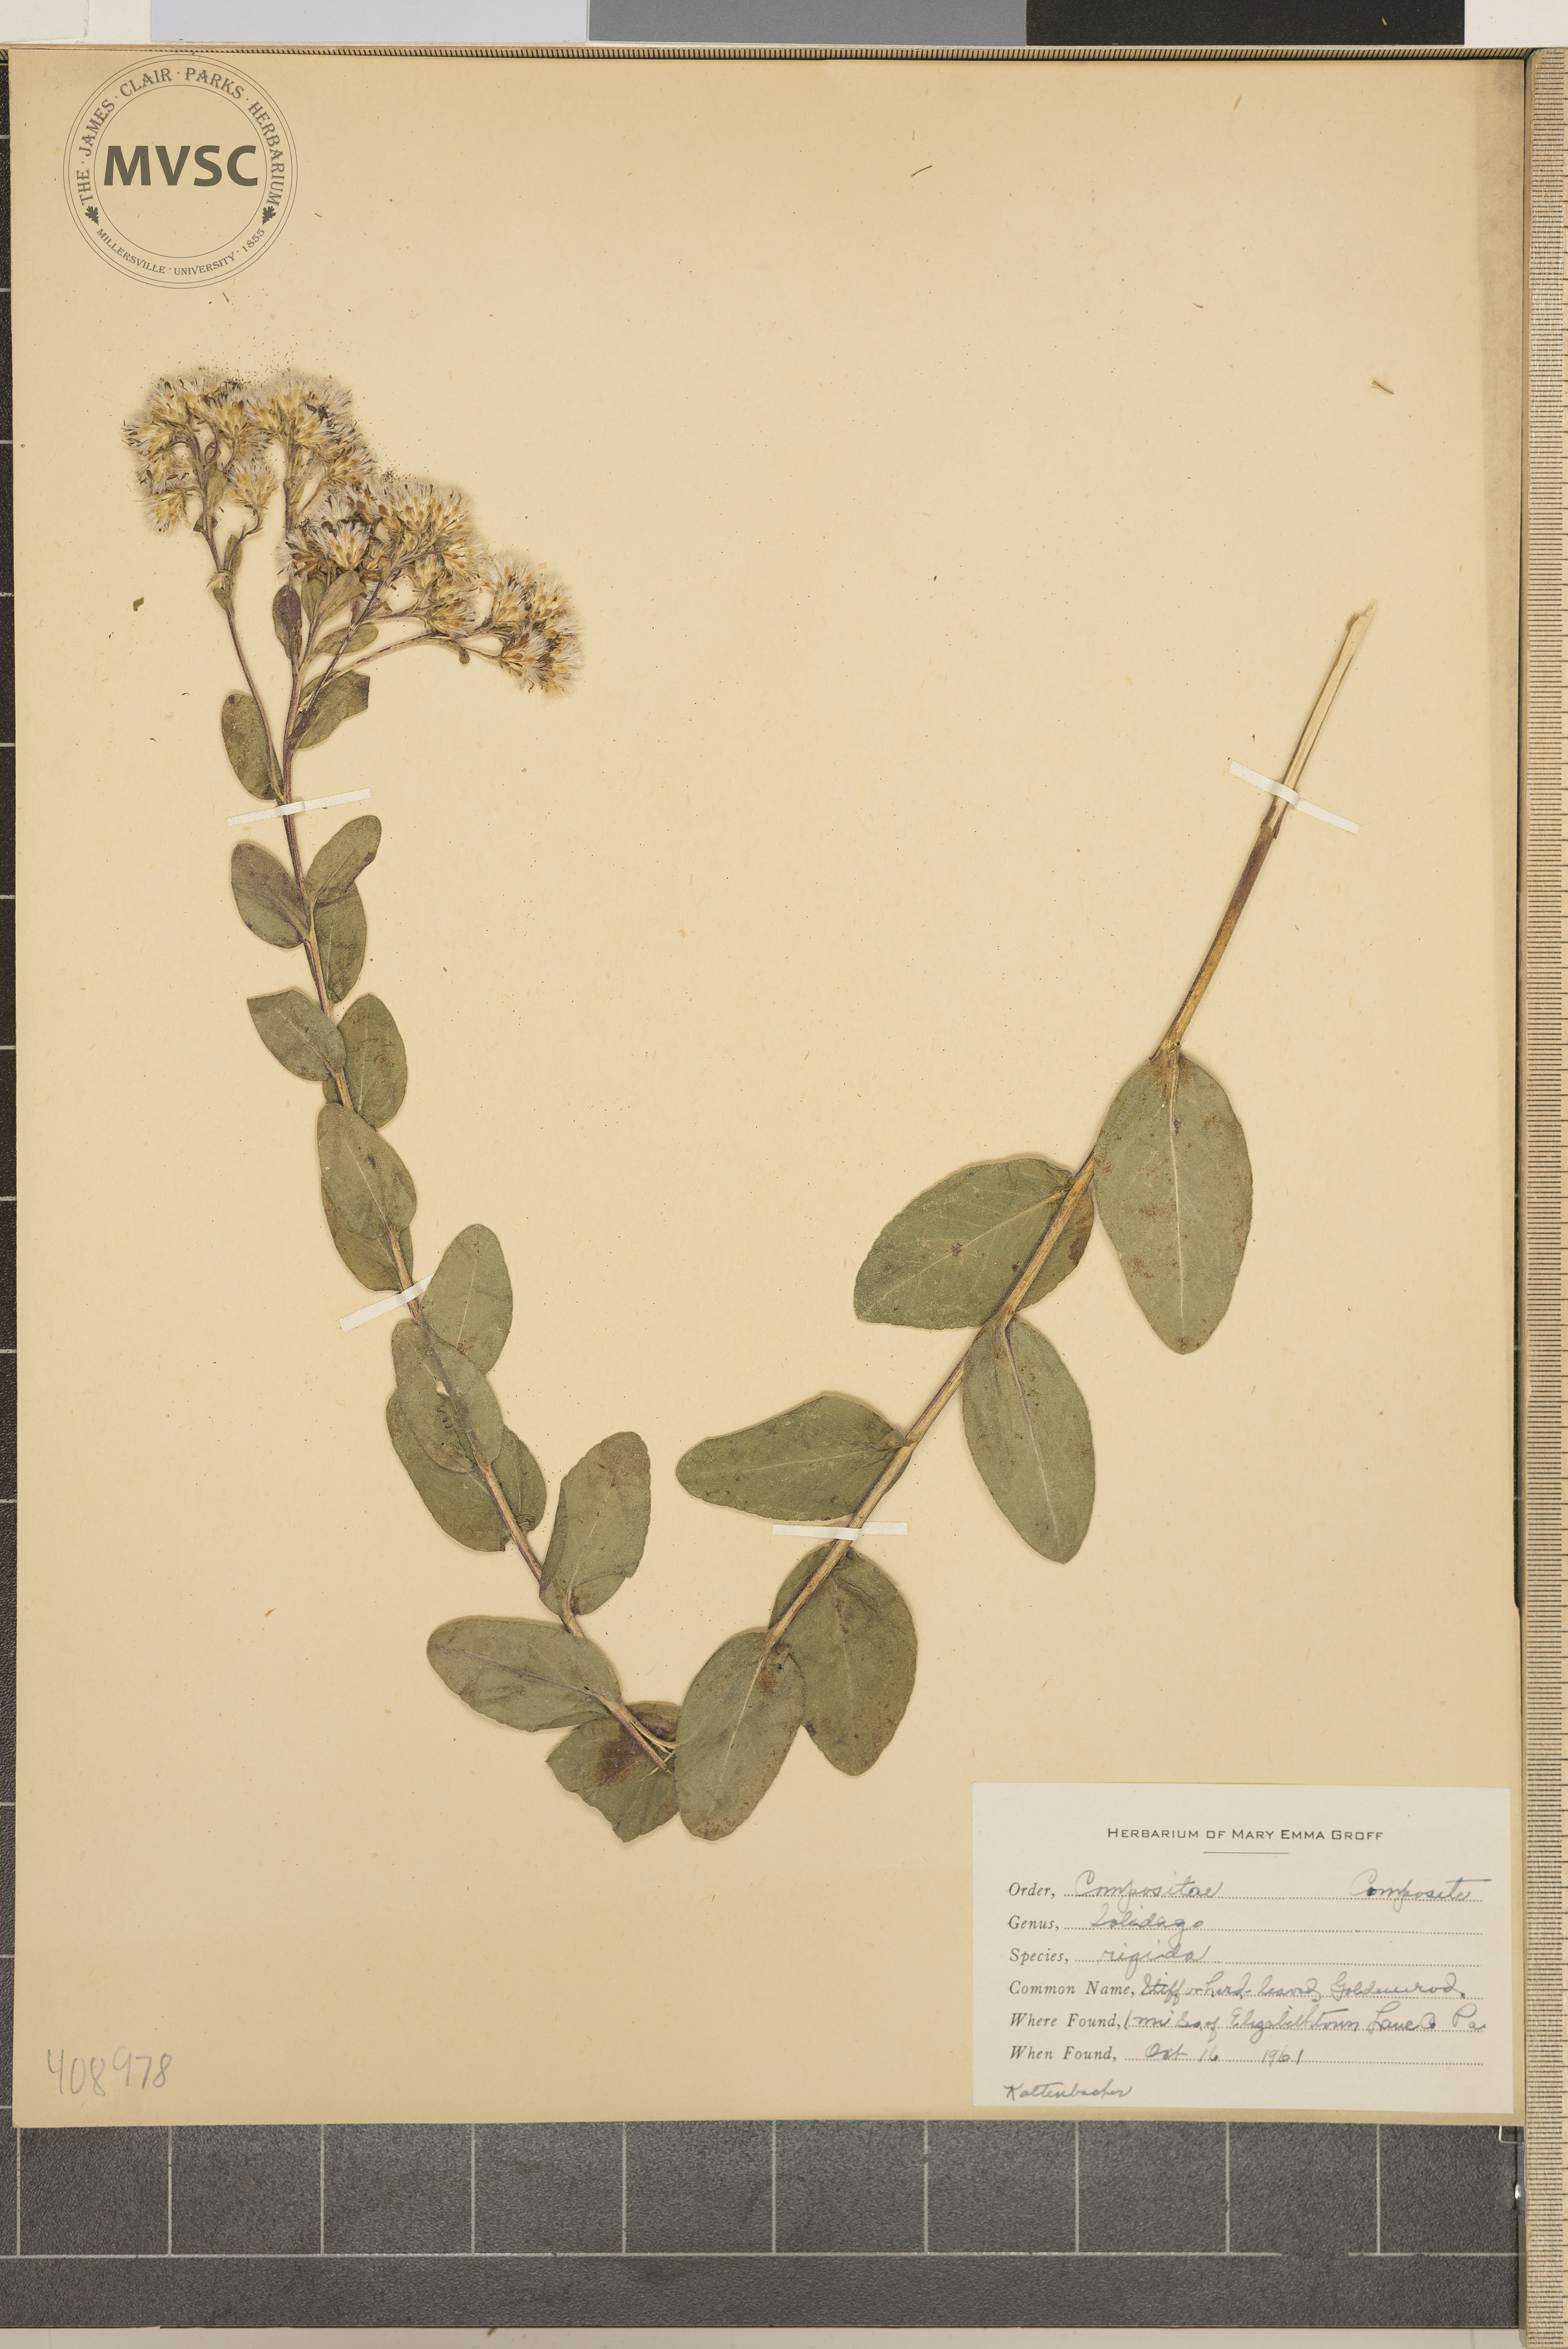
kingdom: Plantae
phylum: Tracheophyta
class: Magnoliopsida
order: Asterales
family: Asteraceae
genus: Solidago
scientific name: Solidago rigida
